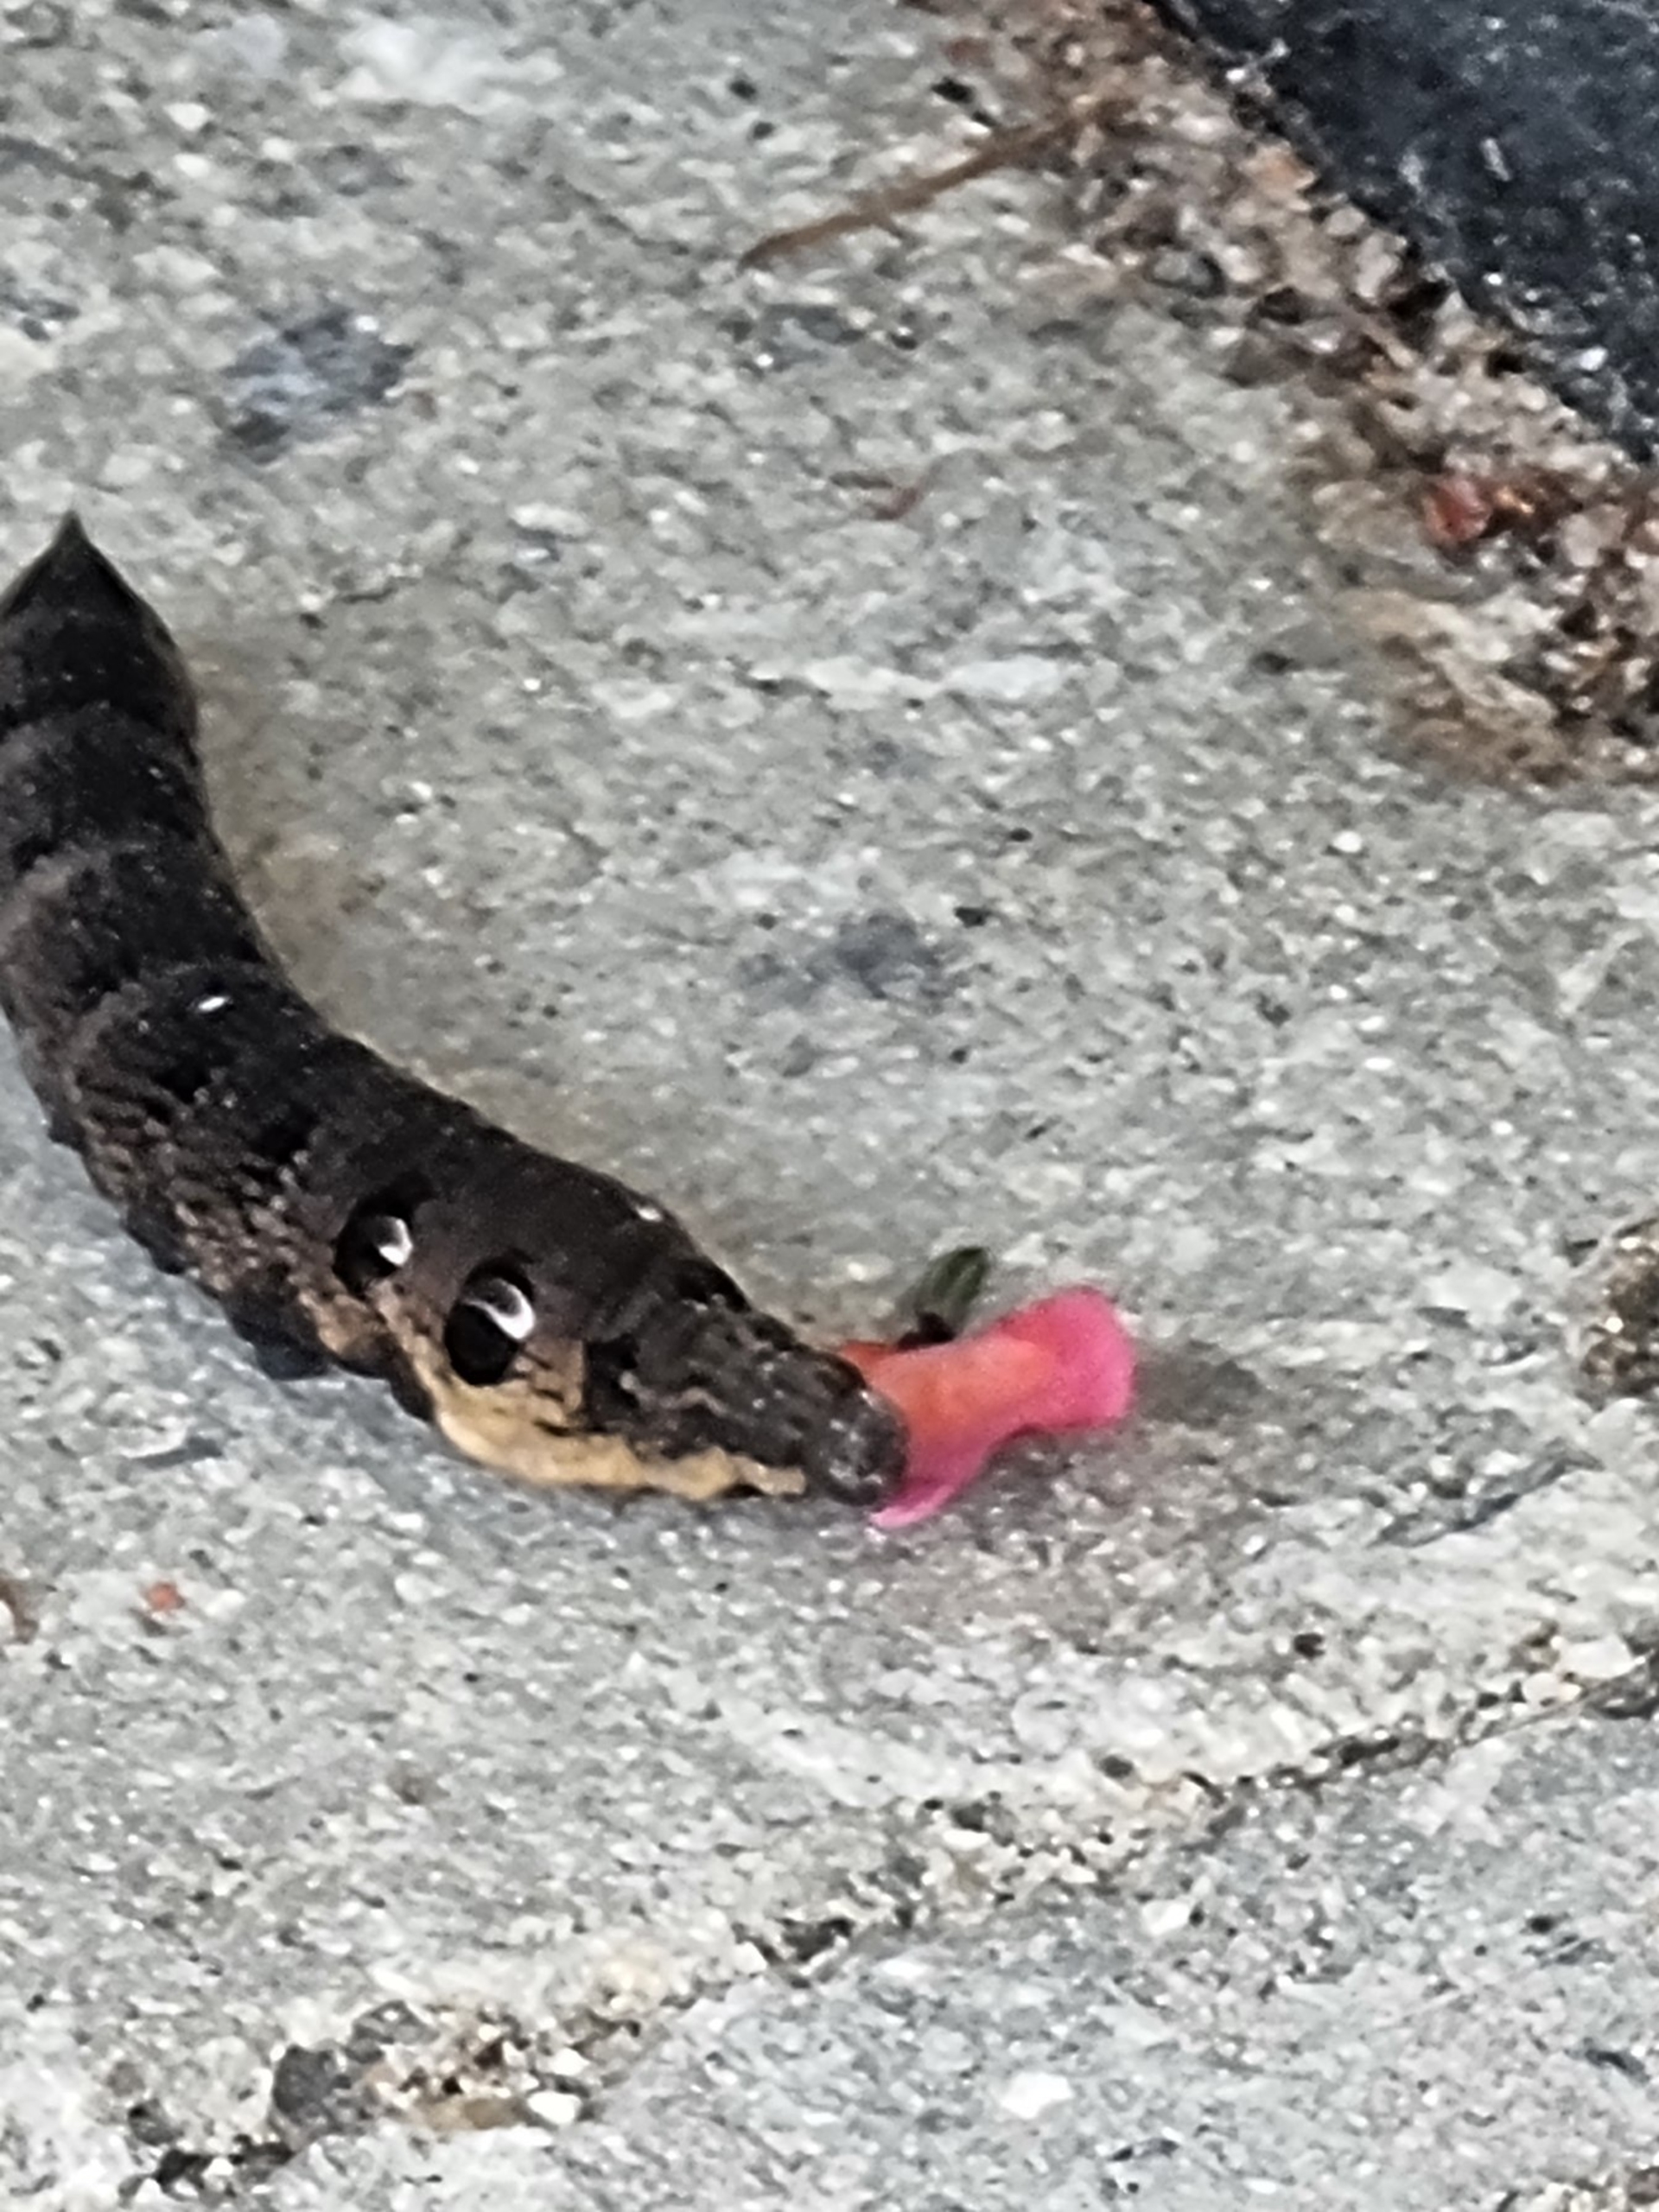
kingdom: Animalia
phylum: Arthropoda
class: Insecta
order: Lepidoptera
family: Sphingidae
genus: Deilephila
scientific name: Deilephila elpenor
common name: Dueurtsværmer
